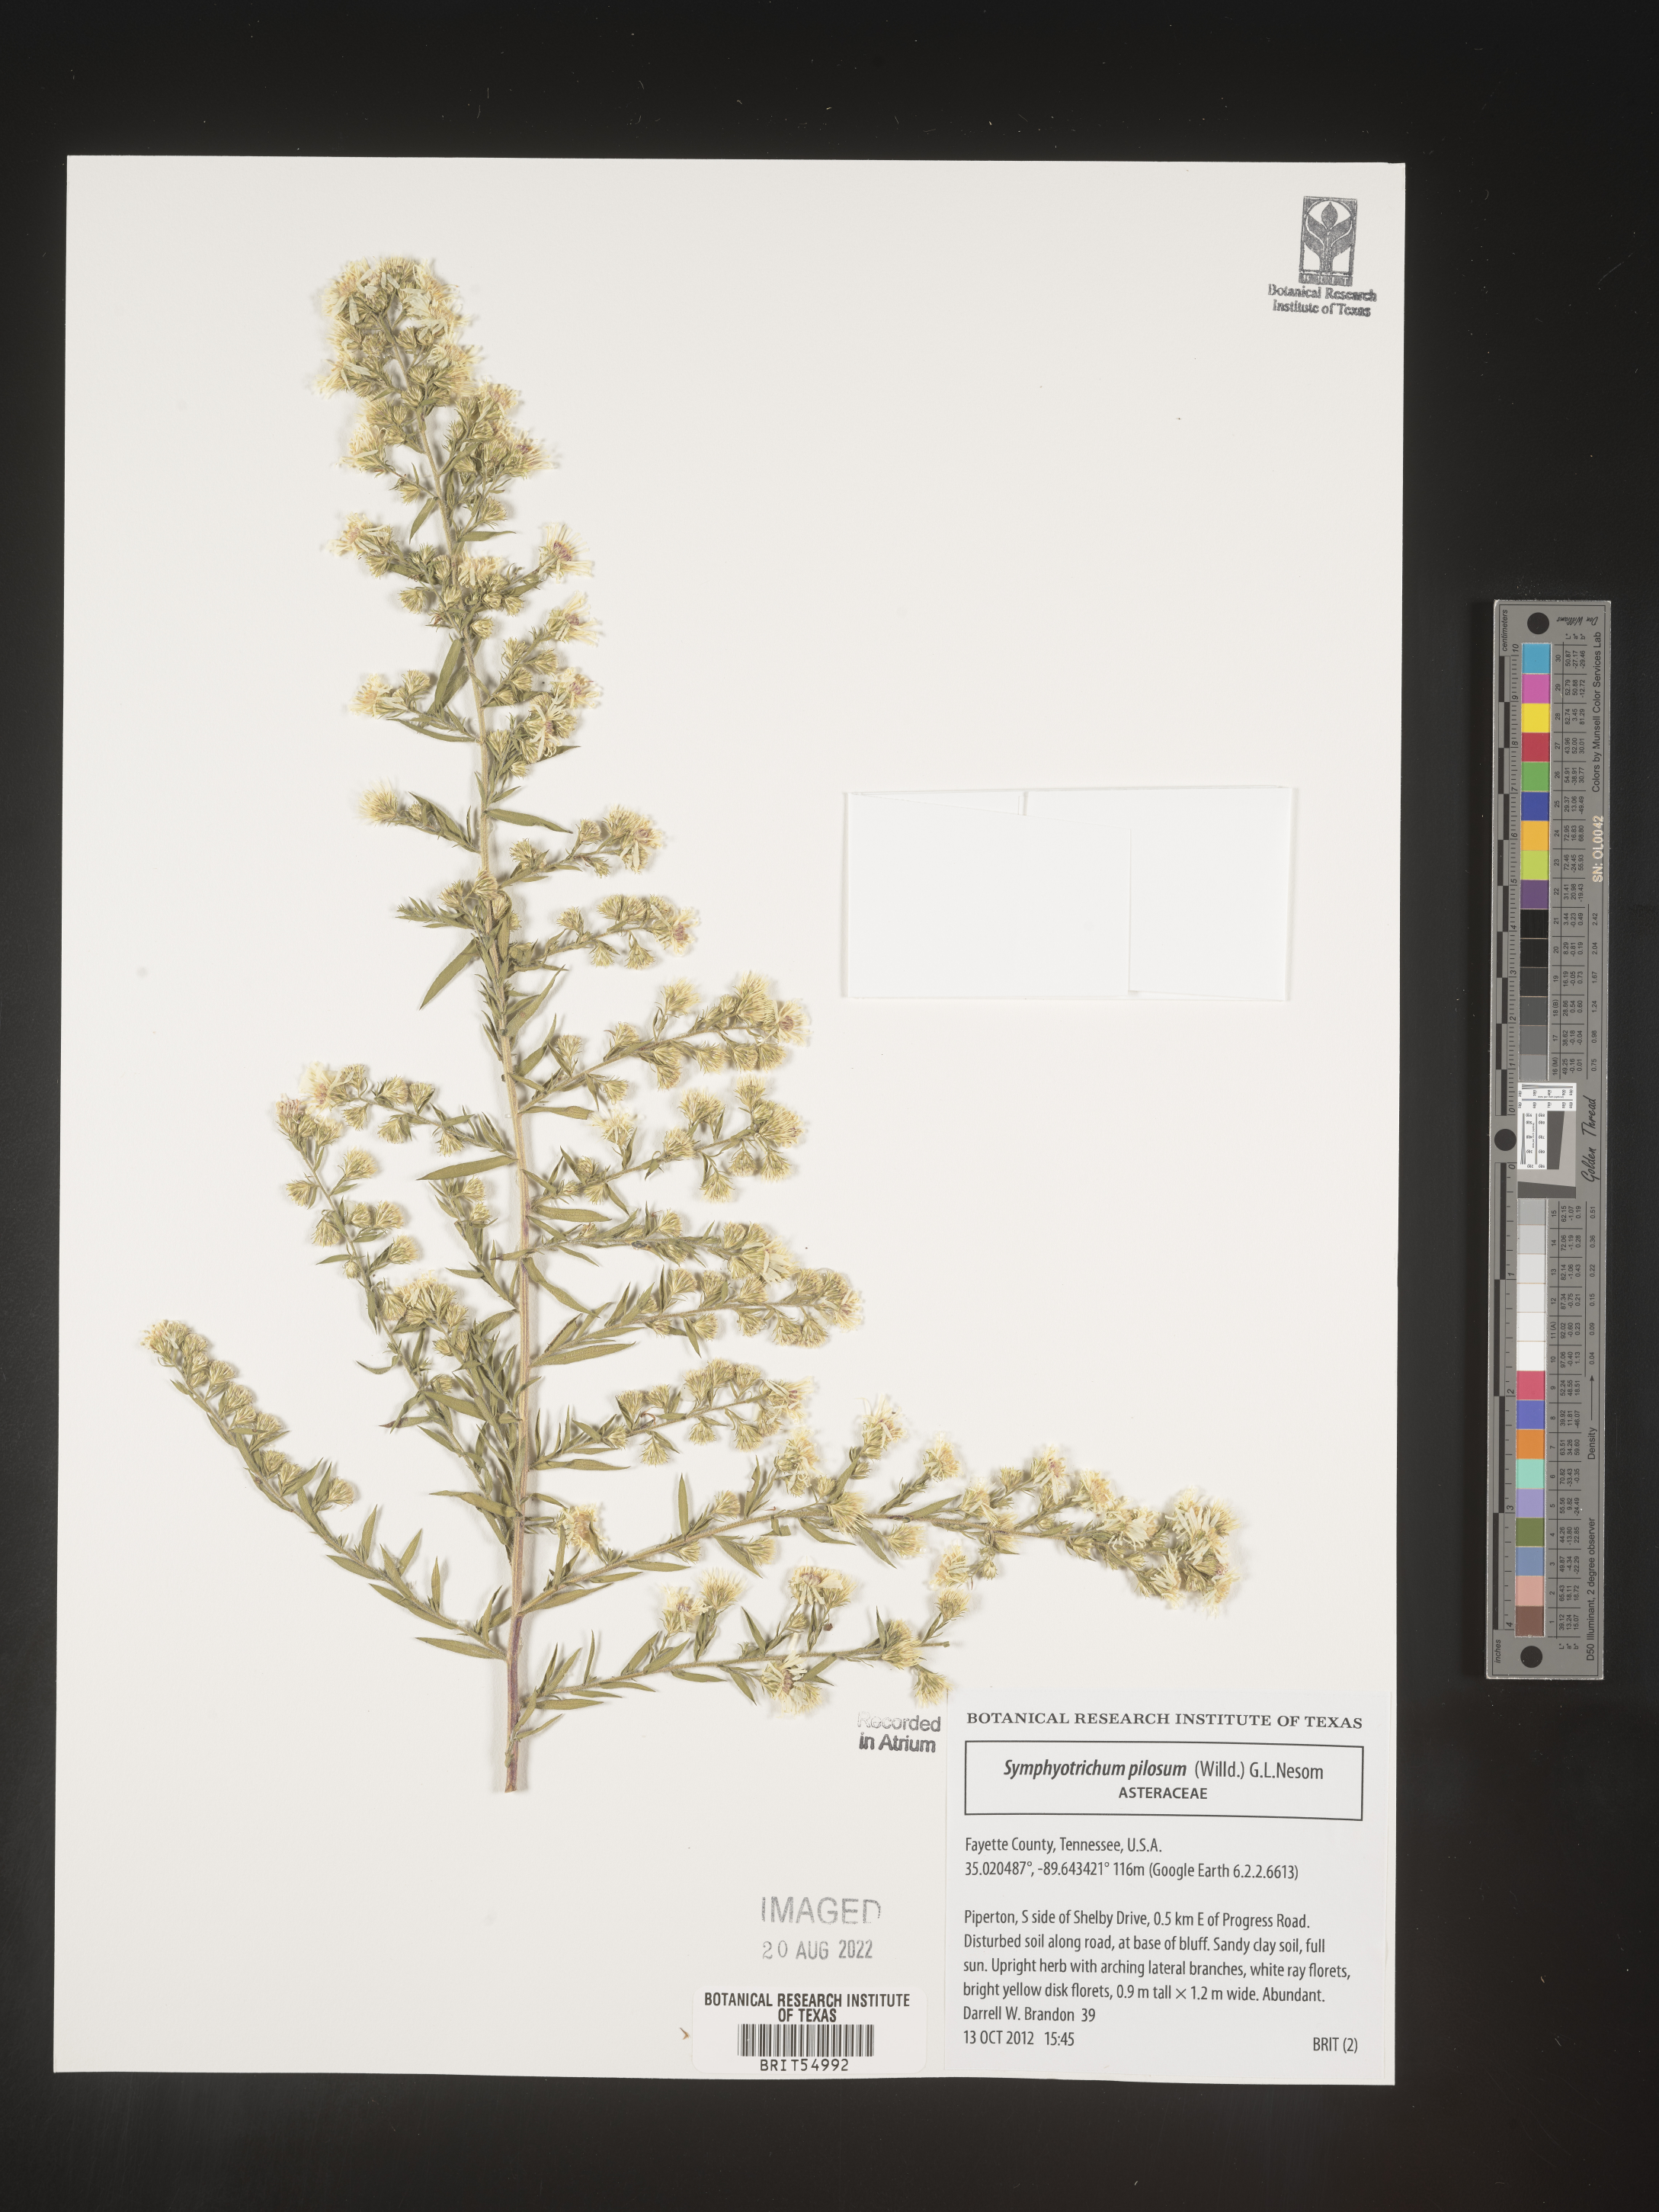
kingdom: Plantae
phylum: Tracheophyta
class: Magnoliopsida
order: Asterales
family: Asteraceae
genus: Symphyotrichum
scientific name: Symphyotrichum pilosum
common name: Awl aster
